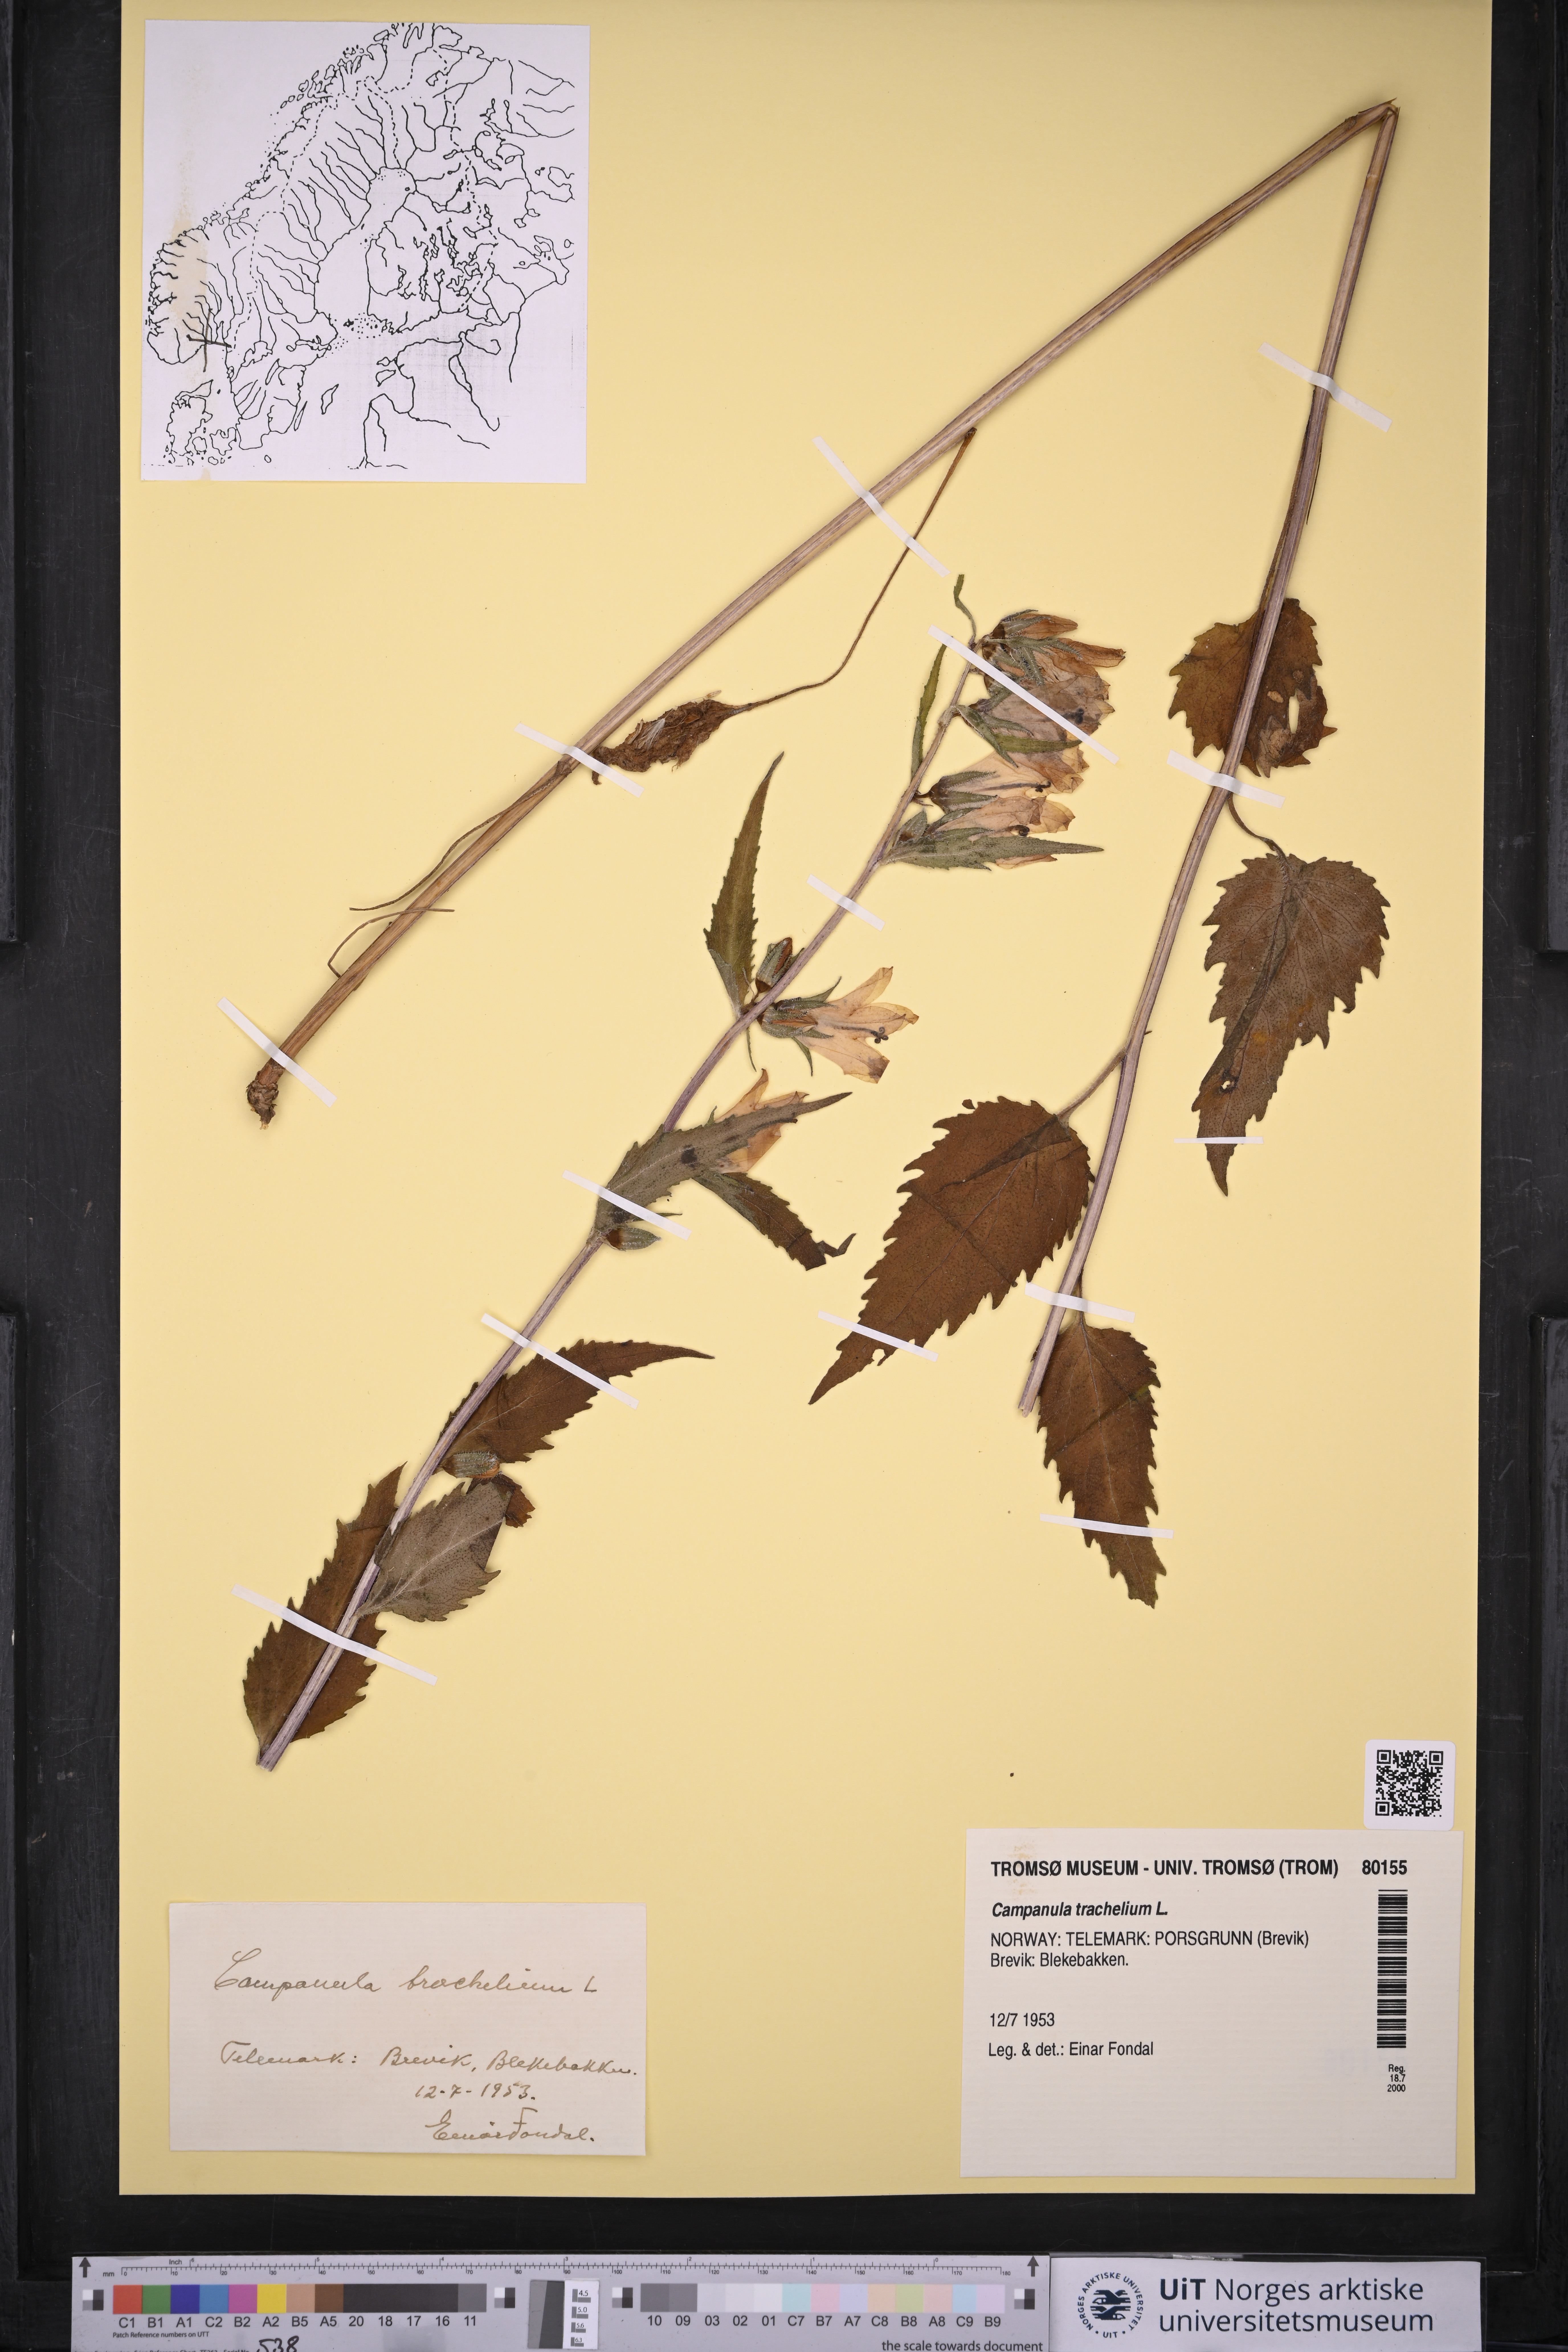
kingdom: Plantae
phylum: Tracheophyta
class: Magnoliopsida
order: Asterales
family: Campanulaceae
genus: Campanula
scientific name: Campanula trachelium
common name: Nettle-leaved bellflower
